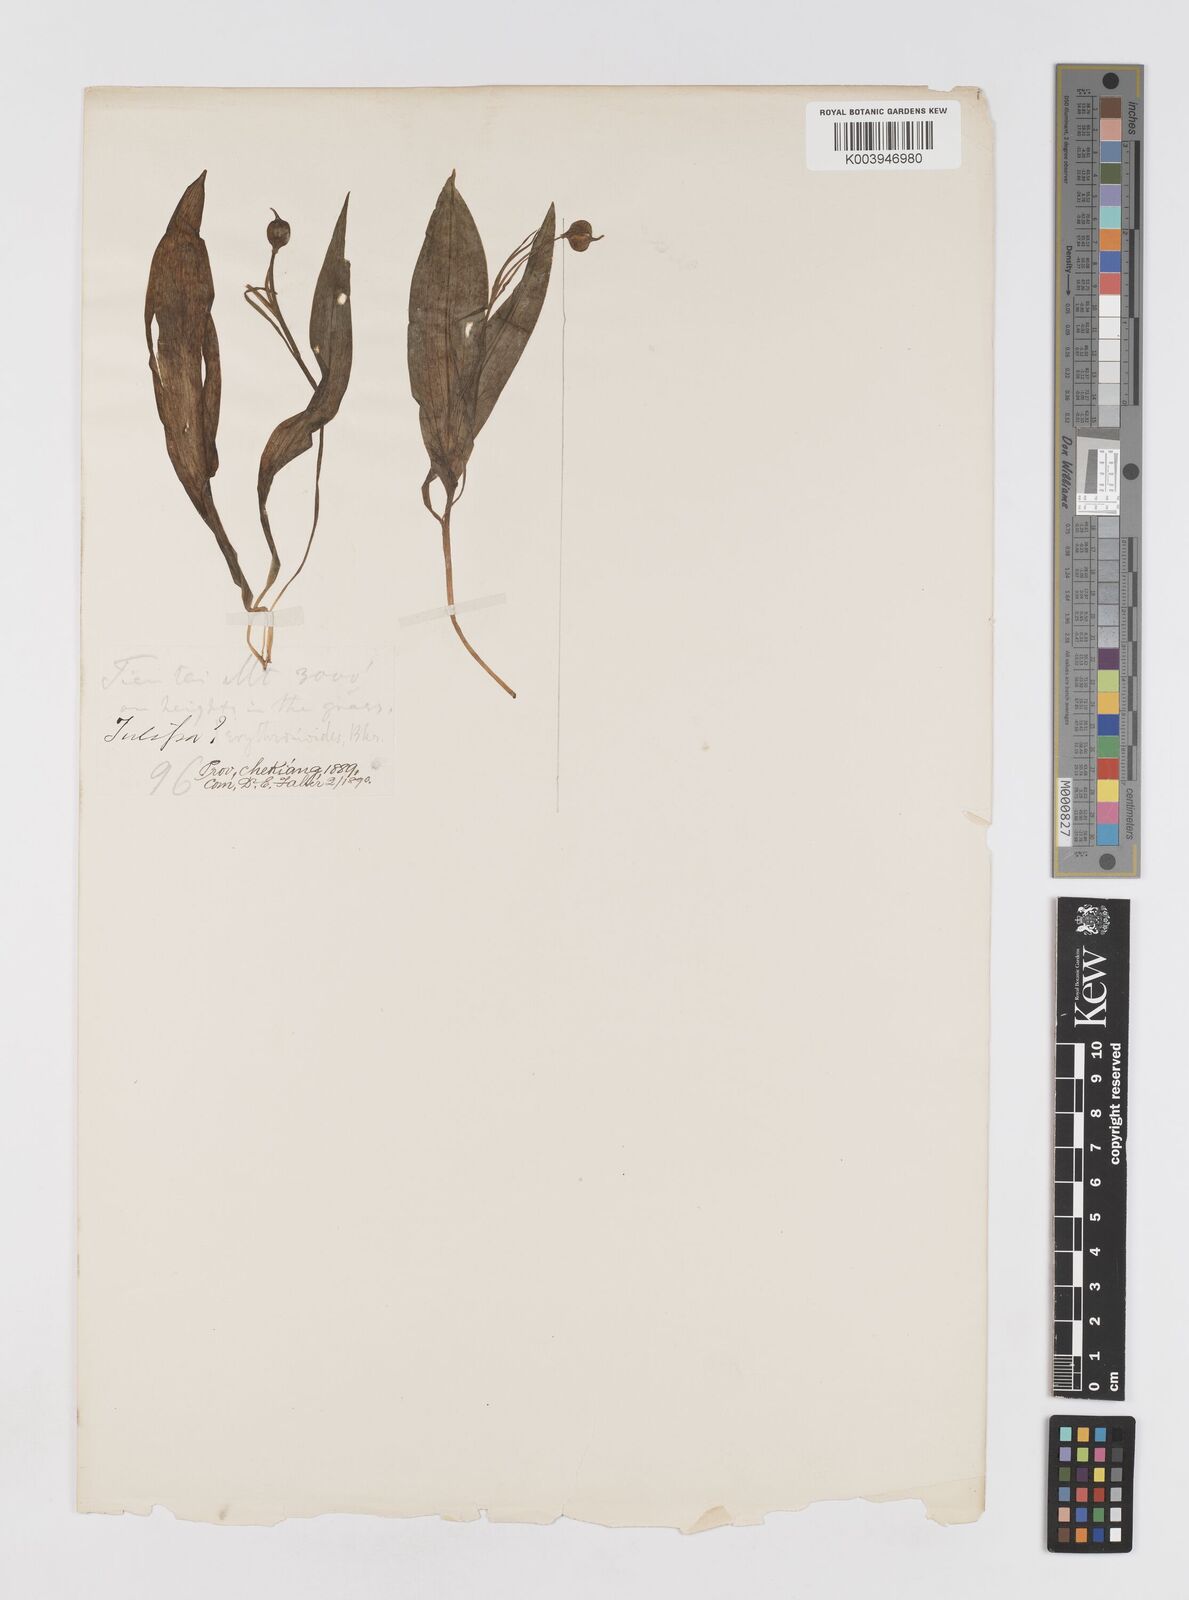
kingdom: Plantae
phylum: Tracheophyta
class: Liliopsida
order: Liliales
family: Liliaceae
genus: Amana
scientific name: Amana erythronioides
